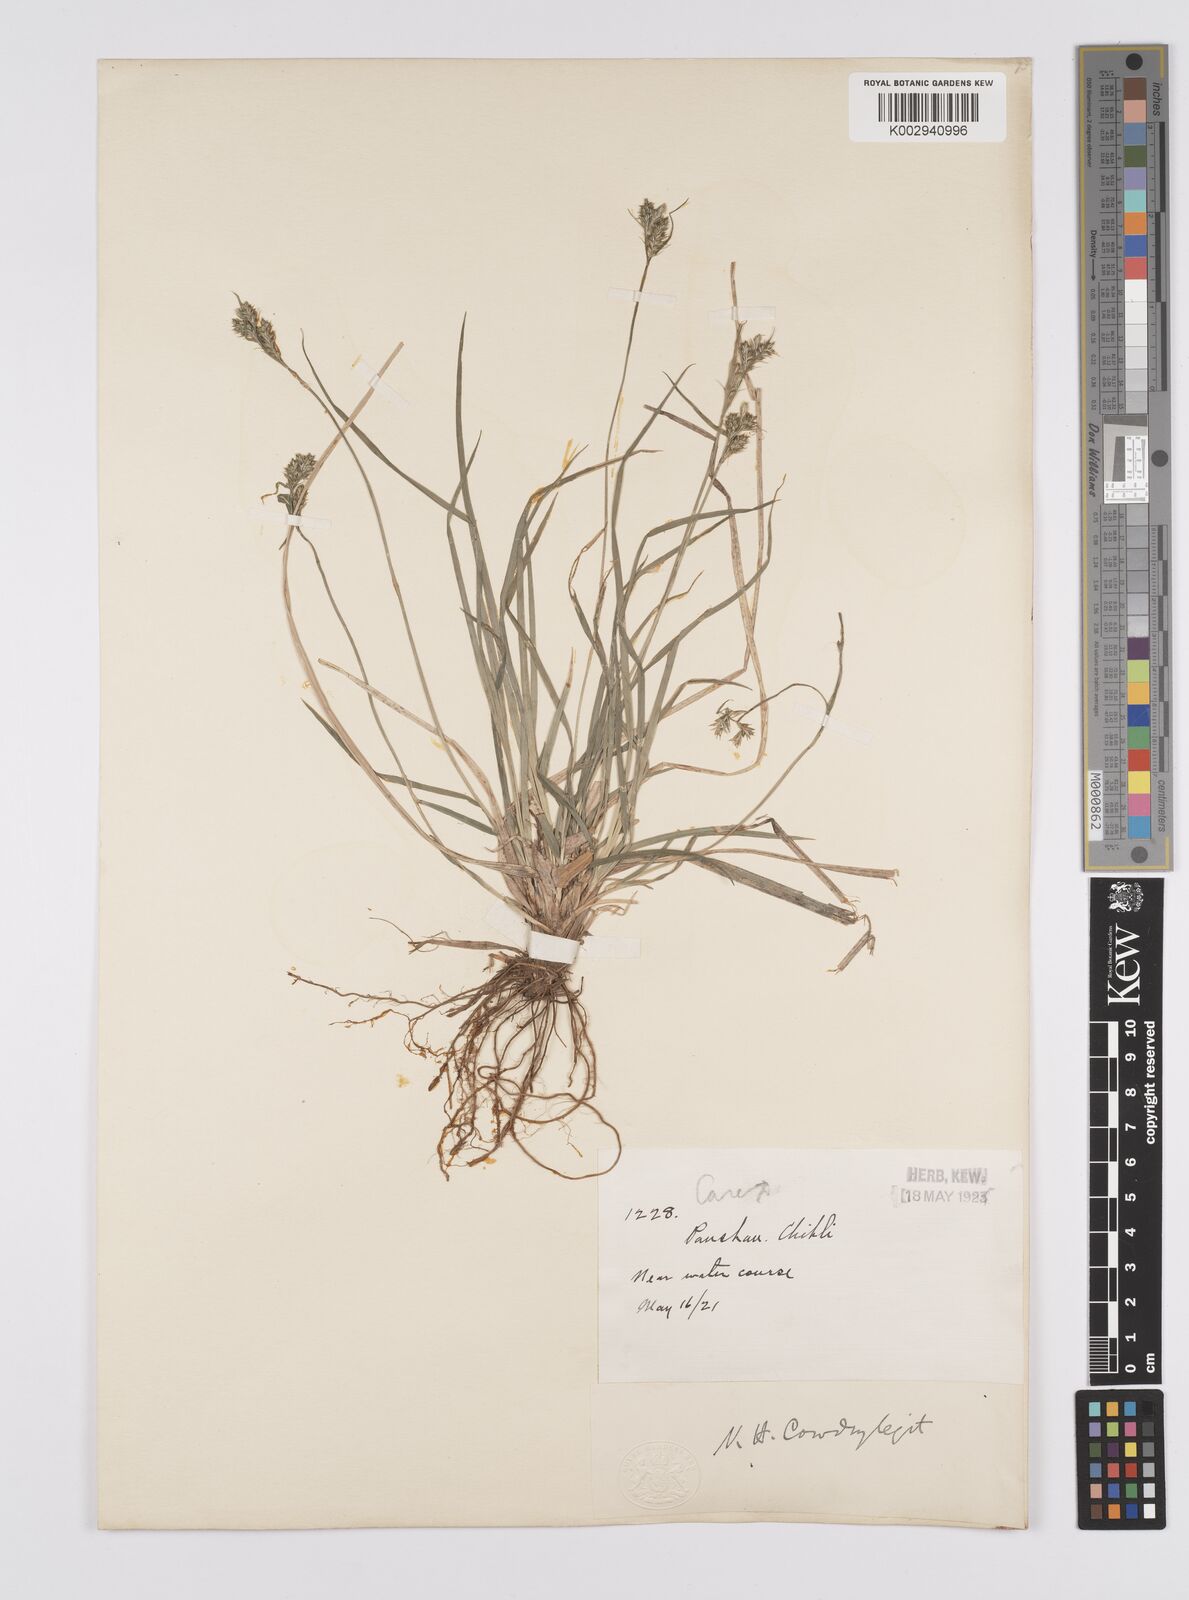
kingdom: Plantae
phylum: Tracheophyta
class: Liliopsida
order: Poales
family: Cyperaceae
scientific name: Cyperaceae
